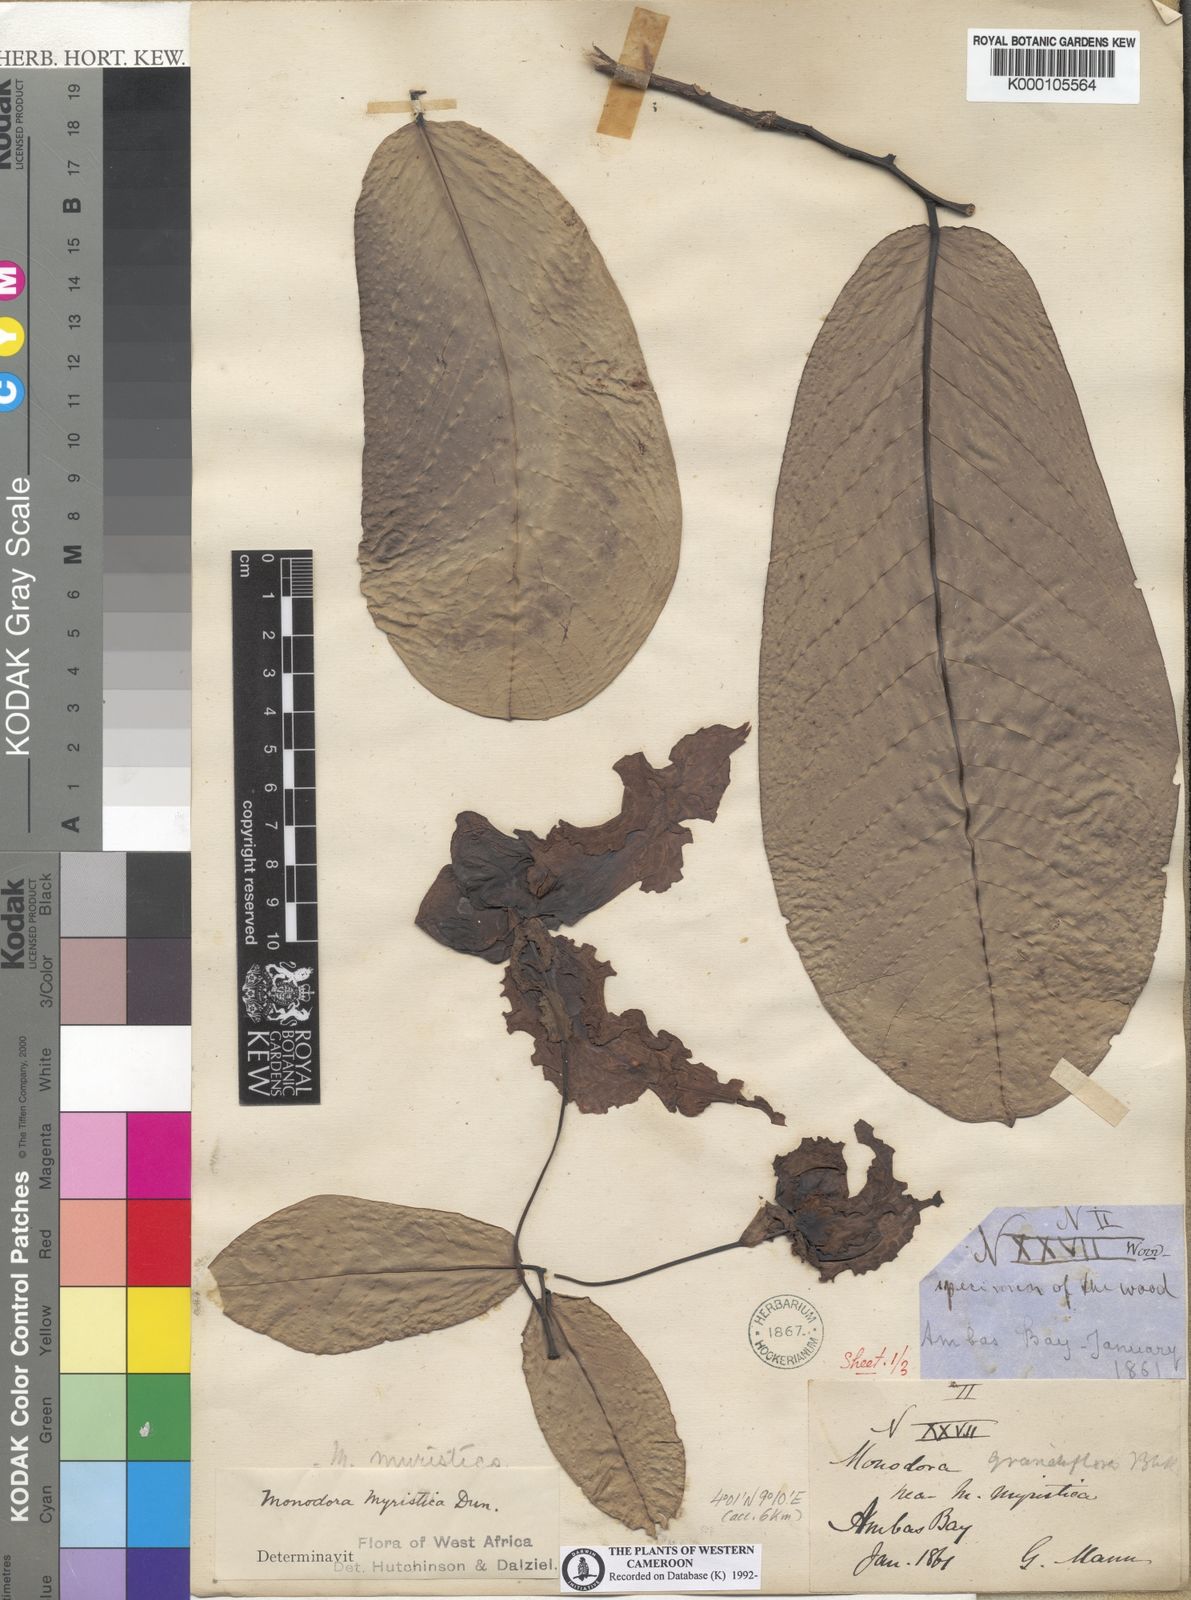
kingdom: Plantae
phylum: Tracheophyta
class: Magnoliopsida
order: Magnoliales
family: Annonaceae
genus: Monodora
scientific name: Monodora myristica
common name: African nutmeg
